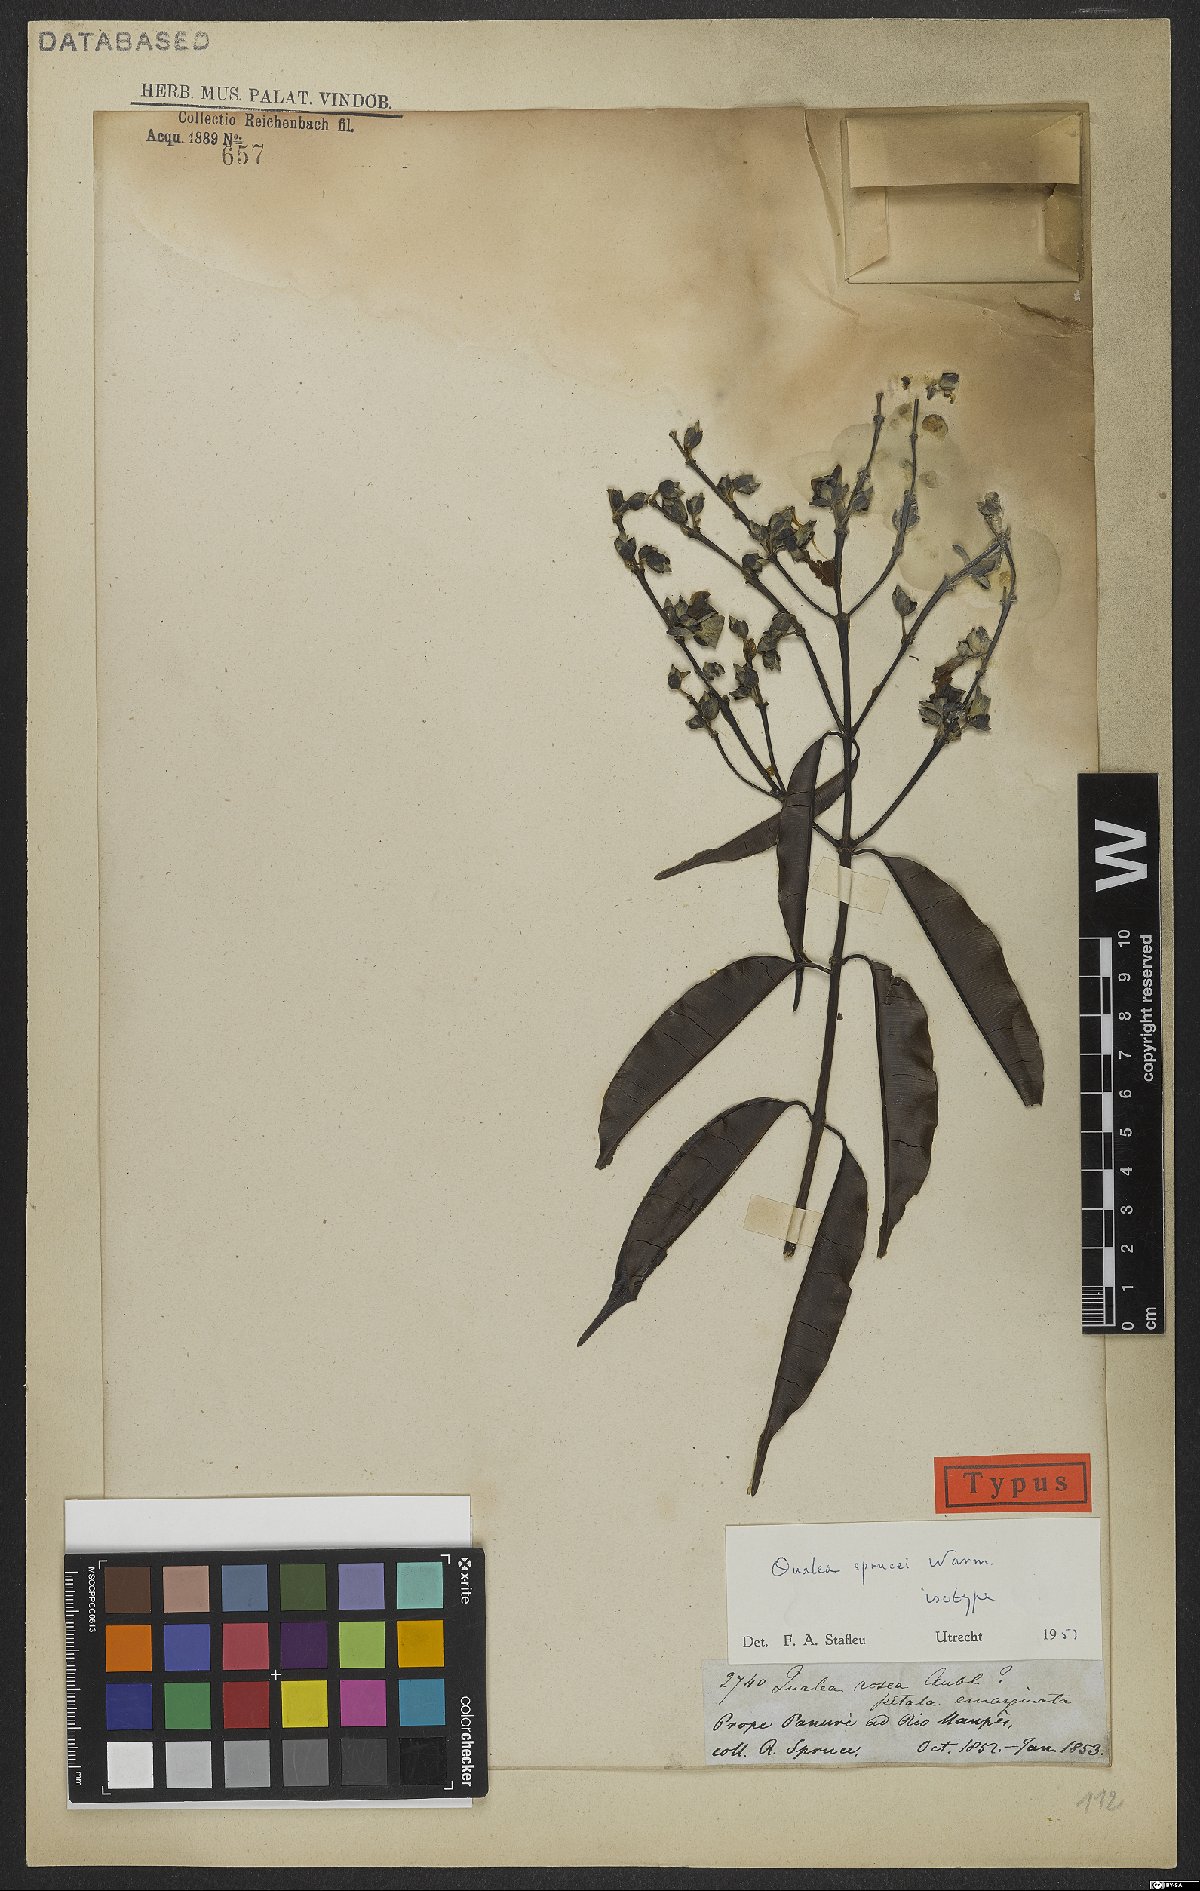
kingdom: Plantae
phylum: Tracheophyta
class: Magnoliopsida
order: Myrtales
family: Vochysiaceae
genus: Qualea
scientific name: Qualea sprucei
